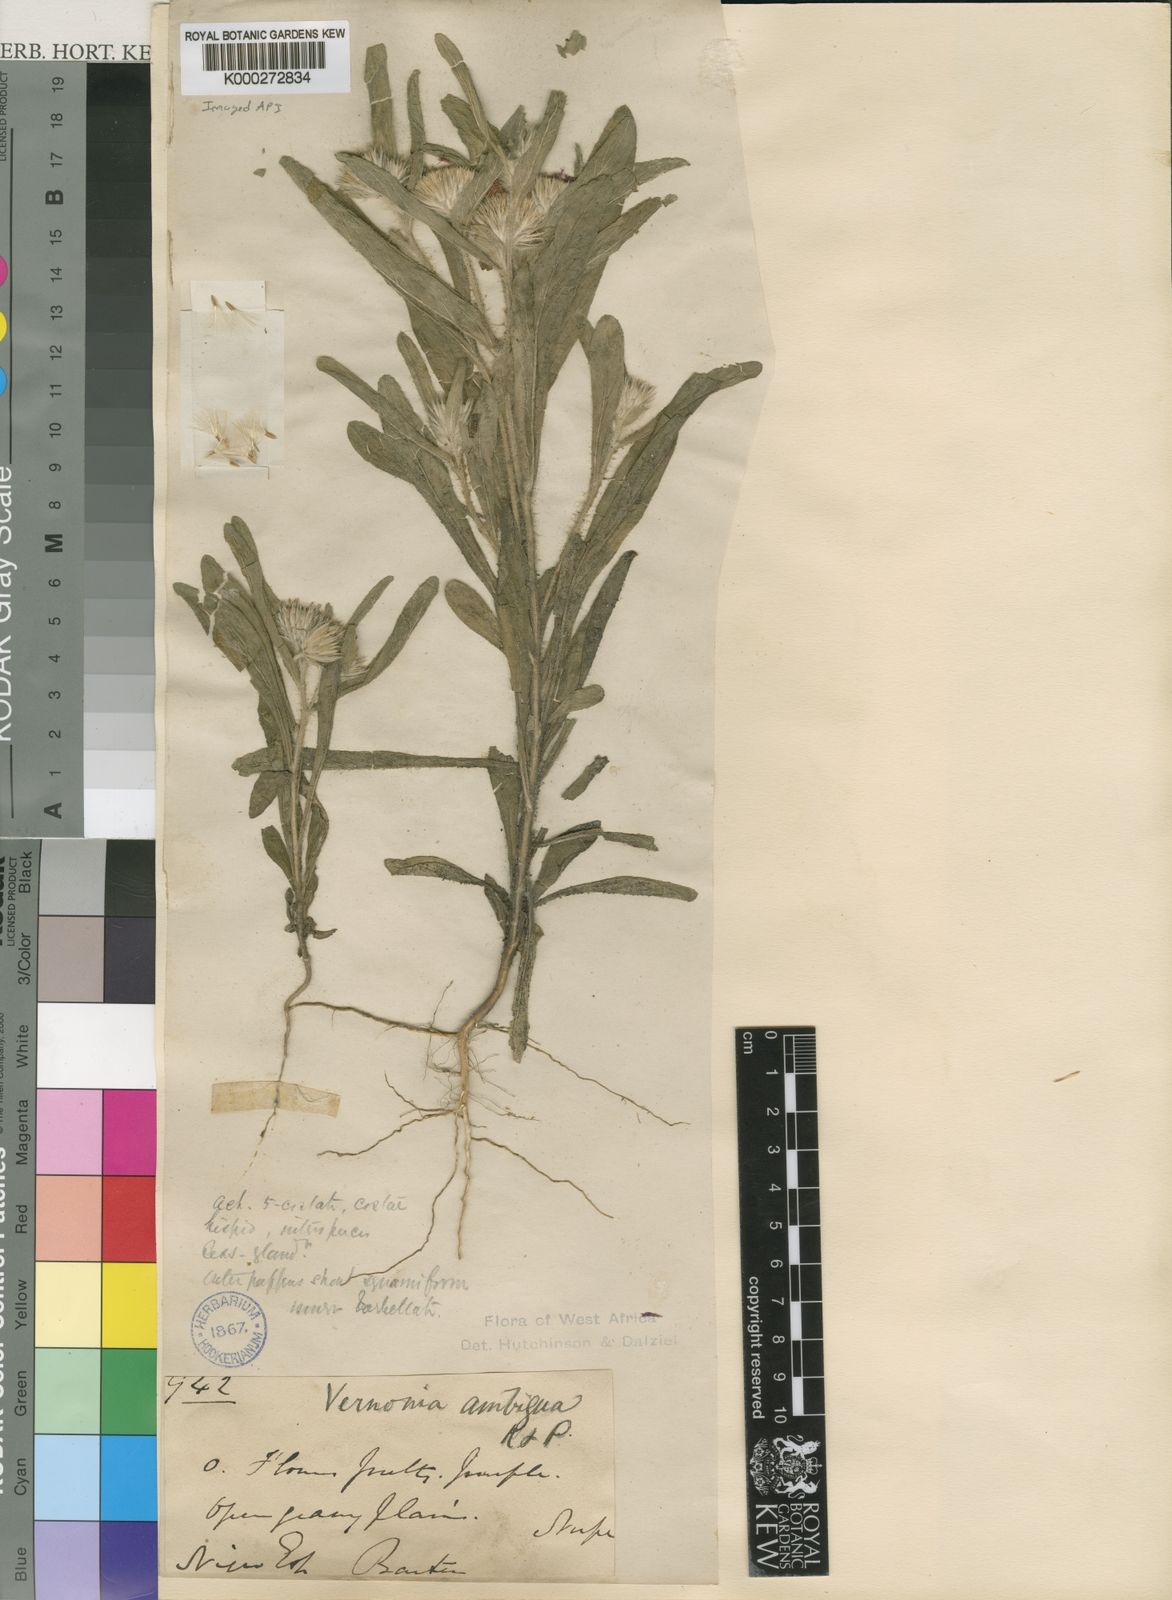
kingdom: Plantae
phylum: Tracheophyta
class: Magnoliopsida
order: Asterales
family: Asteraceae
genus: Vernoniastrum
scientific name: Vernoniastrum ambiguum
